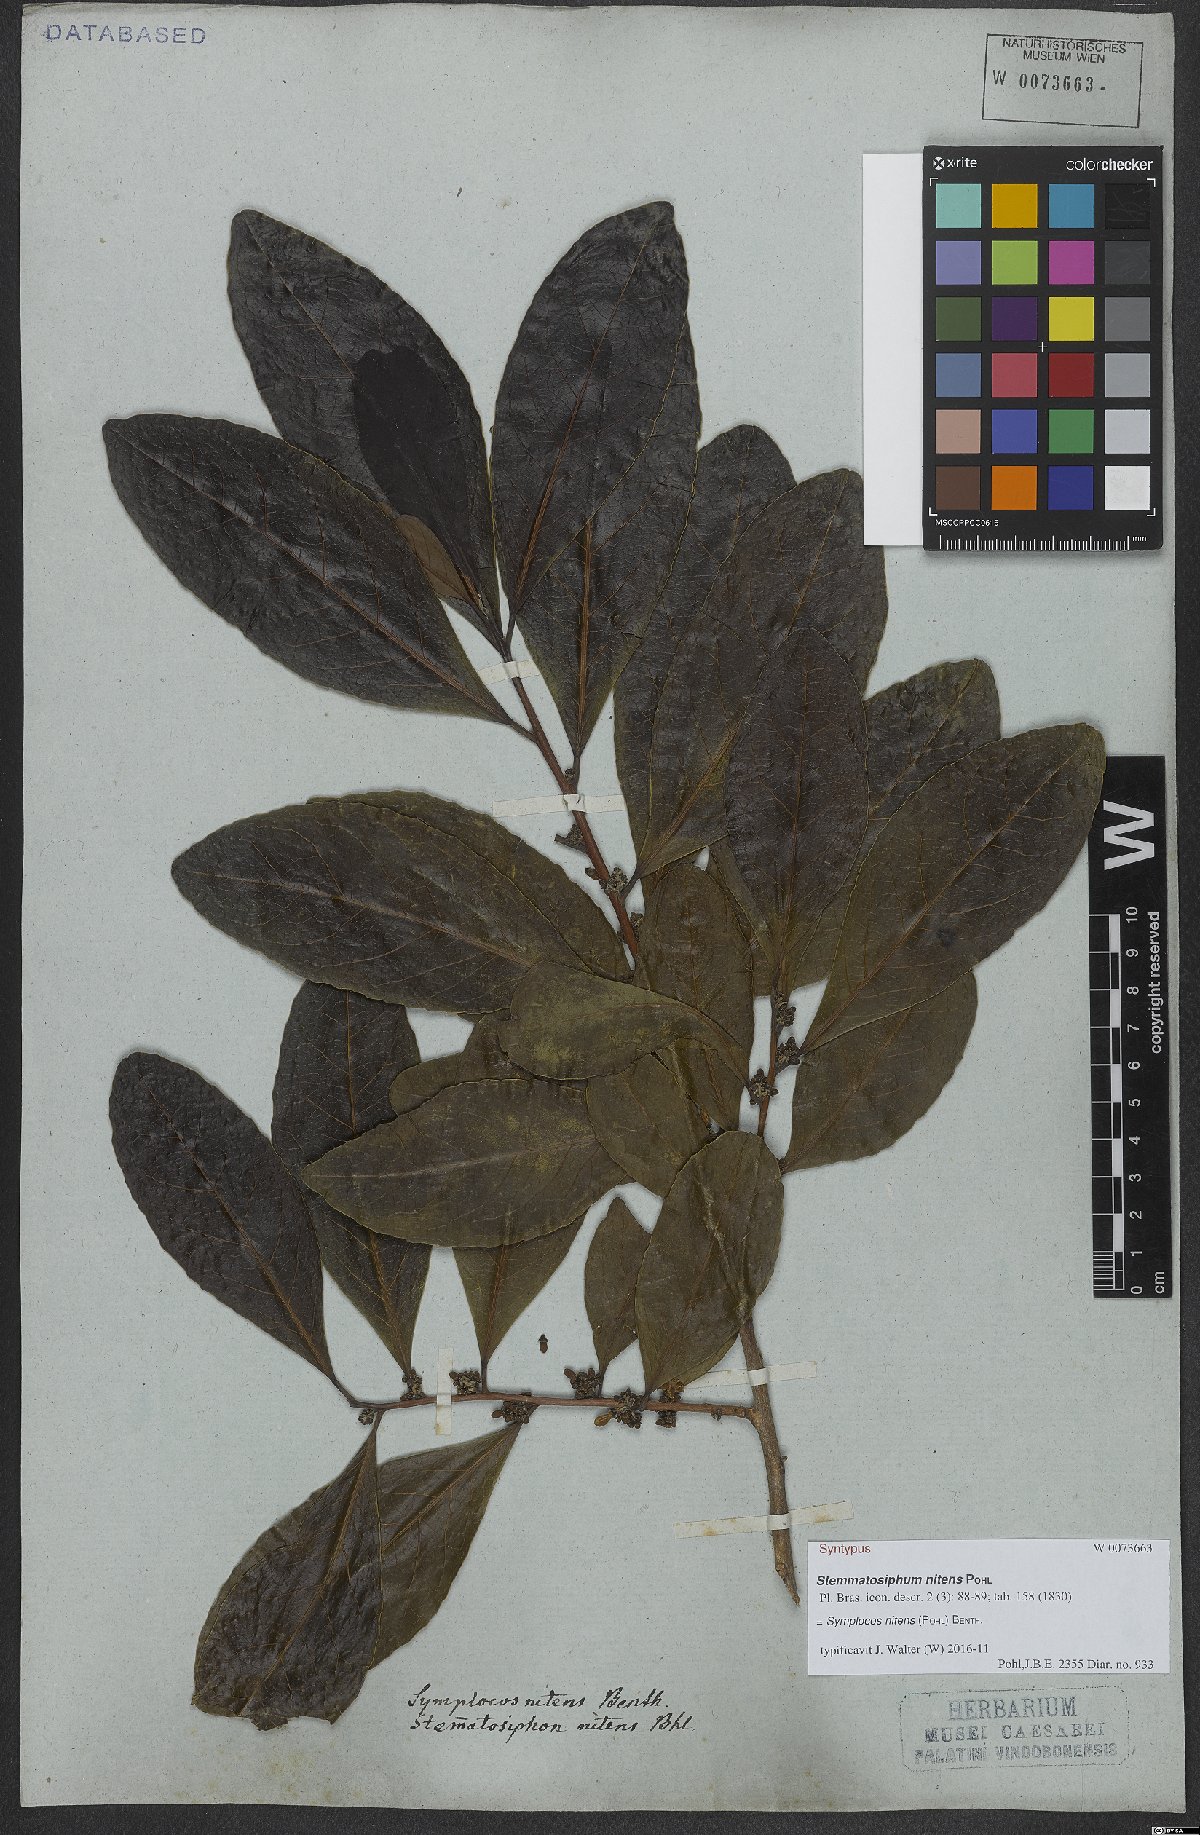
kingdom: Plantae
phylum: Tracheophyta
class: Magnoliopsida
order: Ericales
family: Symplocaceae
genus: Symplocos
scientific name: Symplocos nitens
